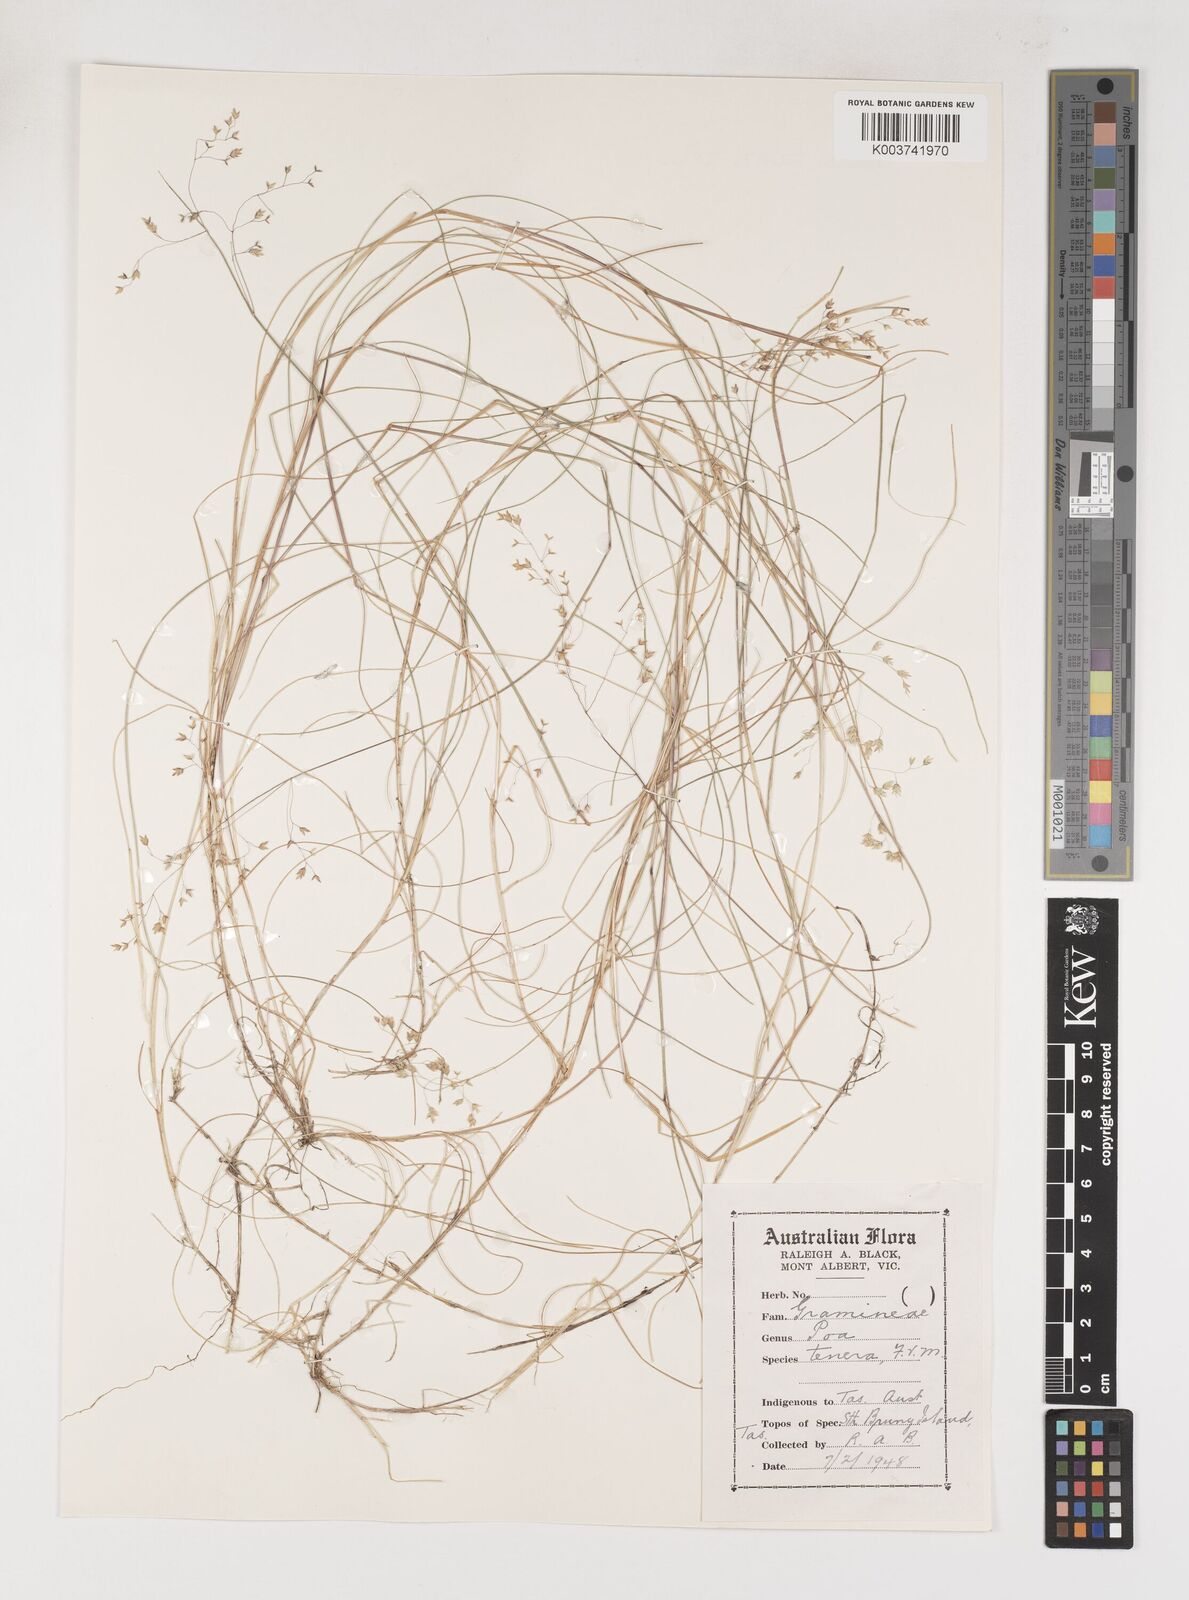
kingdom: Plantae
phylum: Tracheophyta
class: Liliopsida
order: Poales
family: Poaceae
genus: Poa
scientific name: Poa tenera
